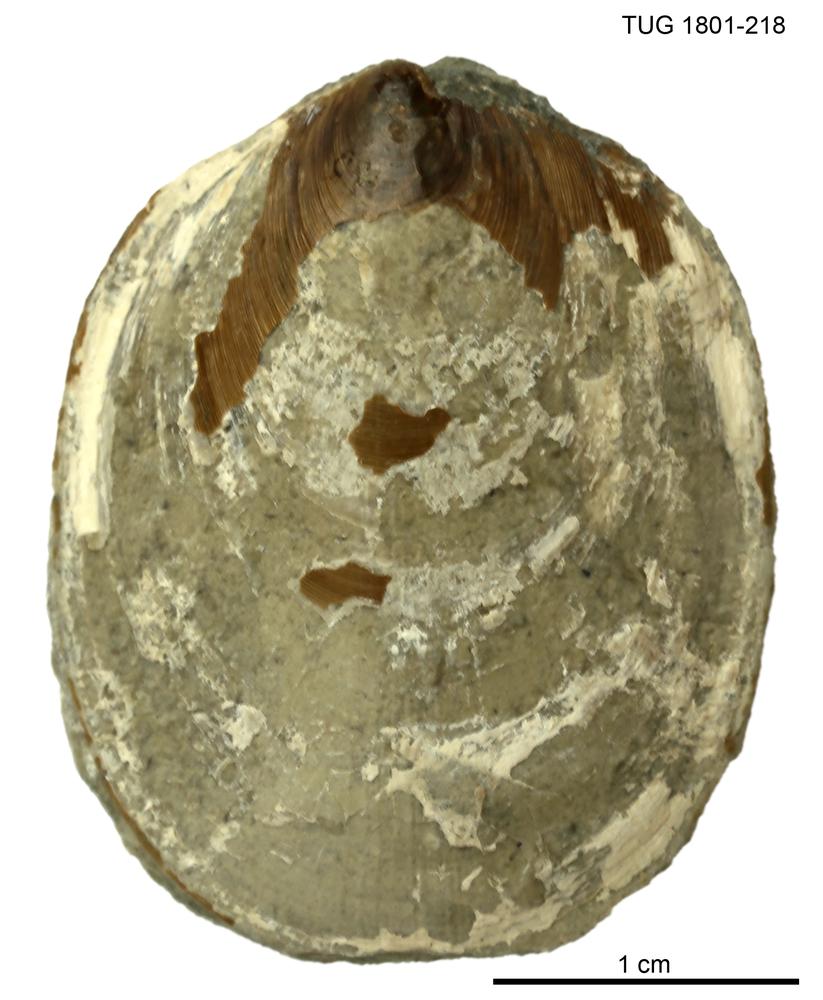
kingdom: Animalia
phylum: Brachiopoda
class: Lingulata
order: Lingulida
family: Pseudolingulidae
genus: Pseudolingula
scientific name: Pseudolingula Crania quadrata
